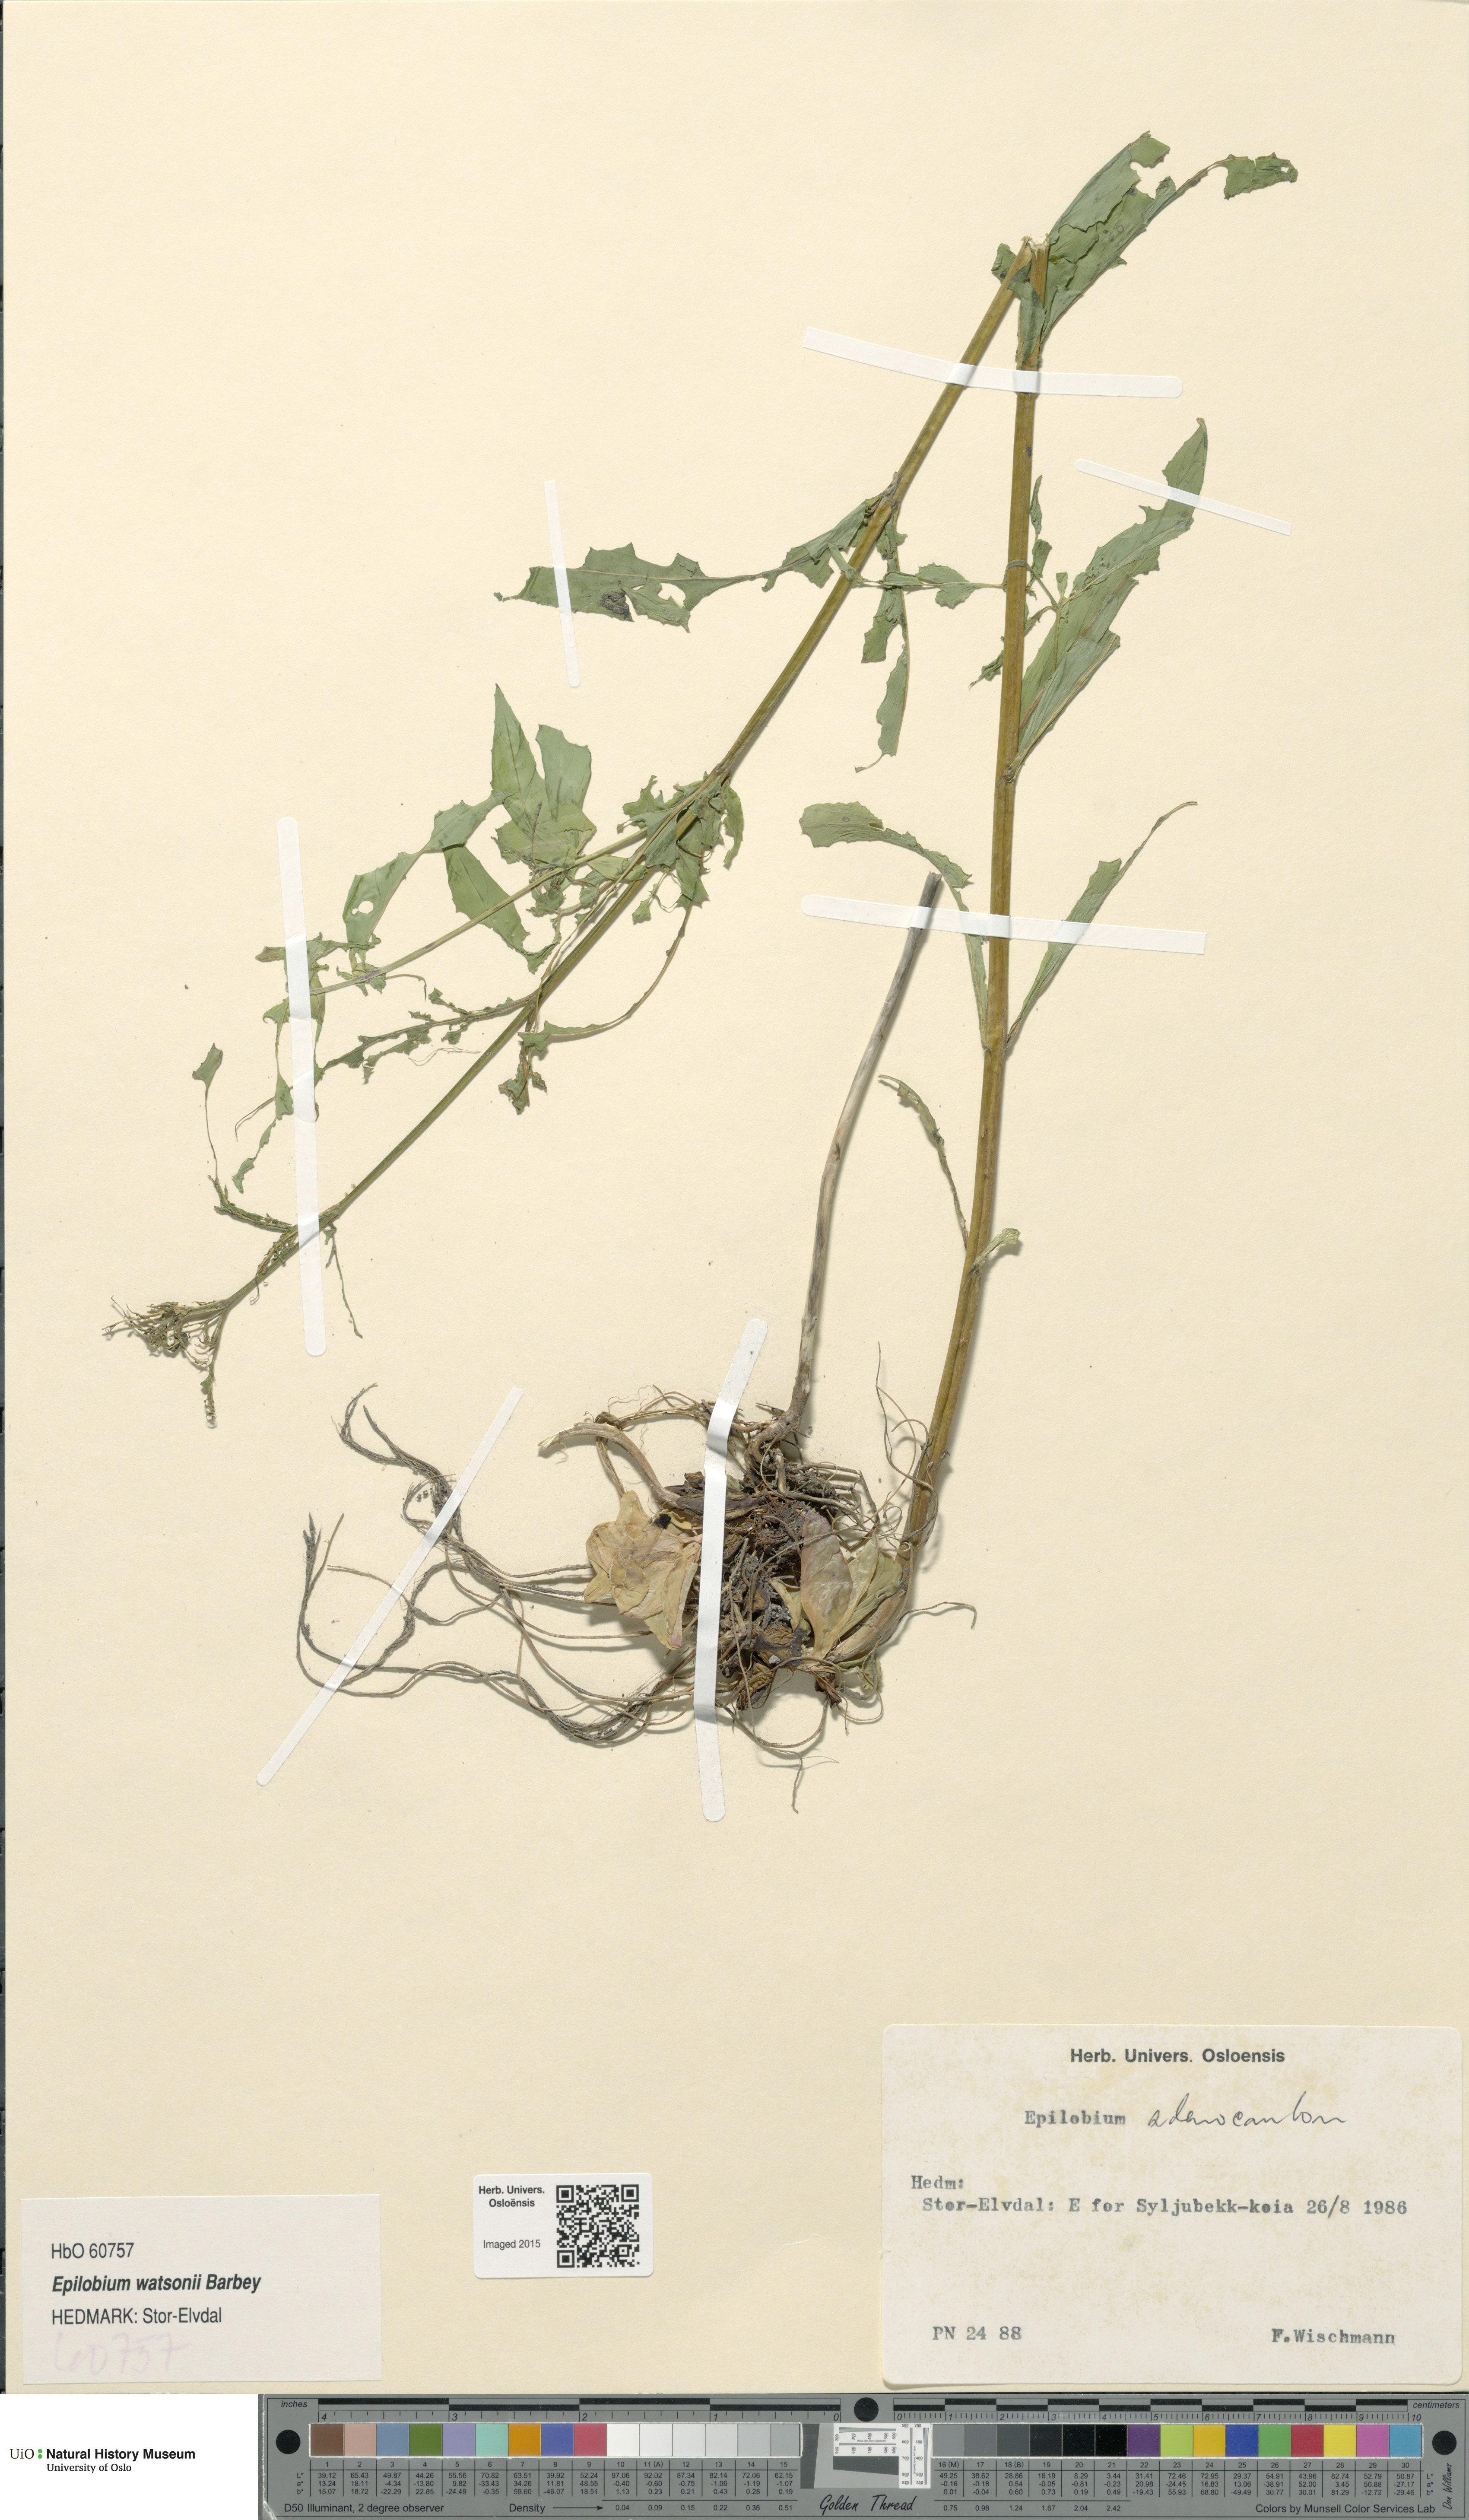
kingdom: Plantae
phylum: Tracheophyta
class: Magnoliopsida
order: Myrtales
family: Onagraceae
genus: Epilobium
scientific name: Epilobium ciliatum
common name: American willowherb
